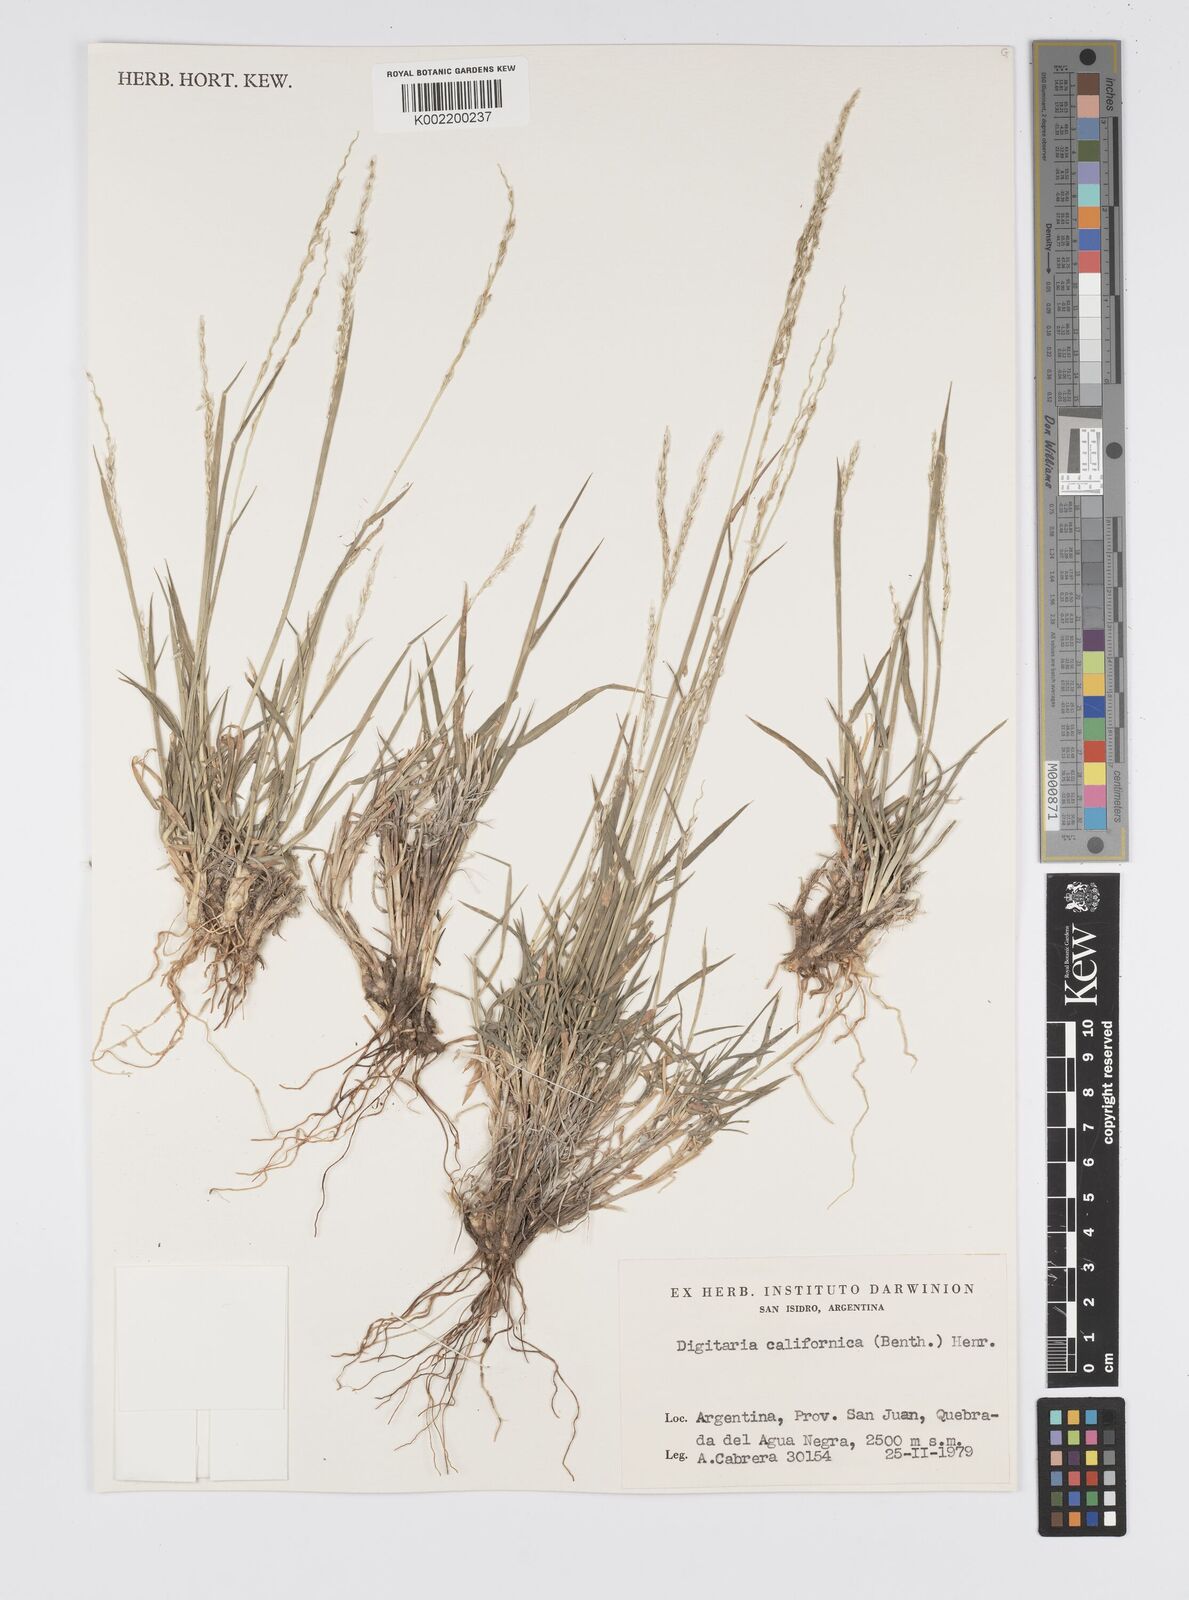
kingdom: Plantae
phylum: Tracheophyta
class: Liliopsida
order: Poales
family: Poaceae
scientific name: Poaceae
